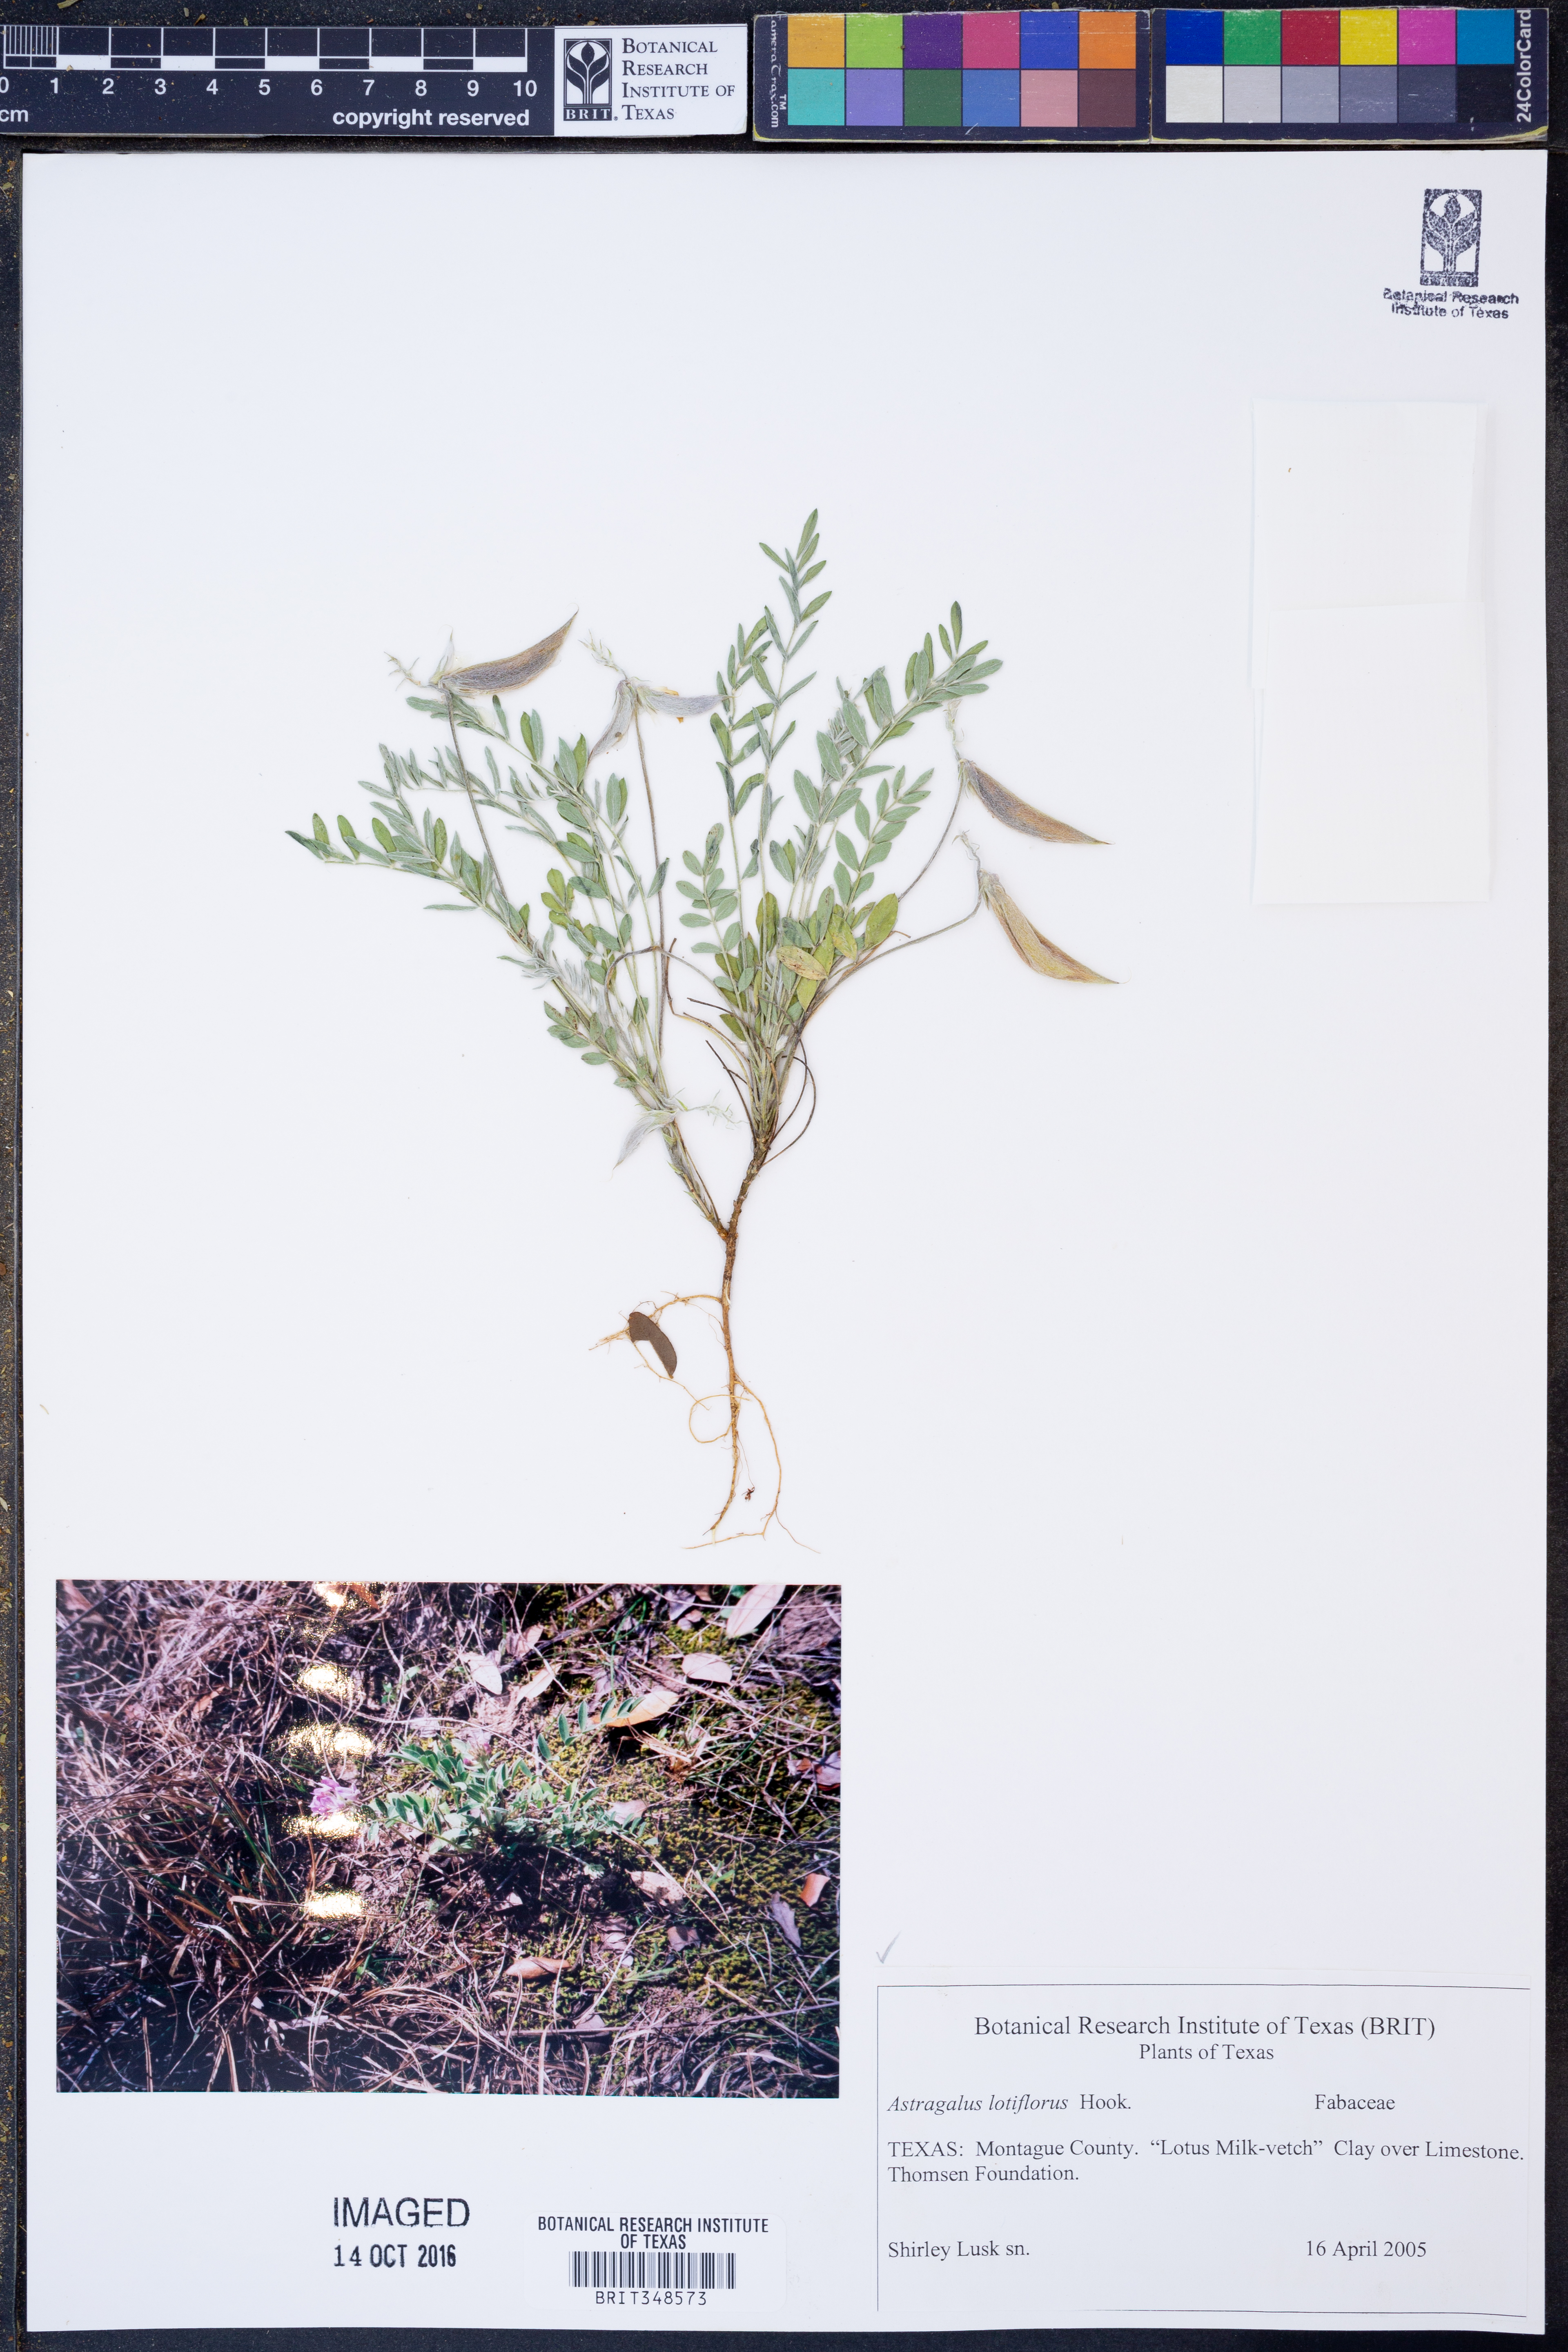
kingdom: Plantae
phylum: Tracheophyta
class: Magnoliopsida
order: Fabales
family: Fabaceae
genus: Astragalus
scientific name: Astragalus lotiflorus
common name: Lotus milk-vetch
